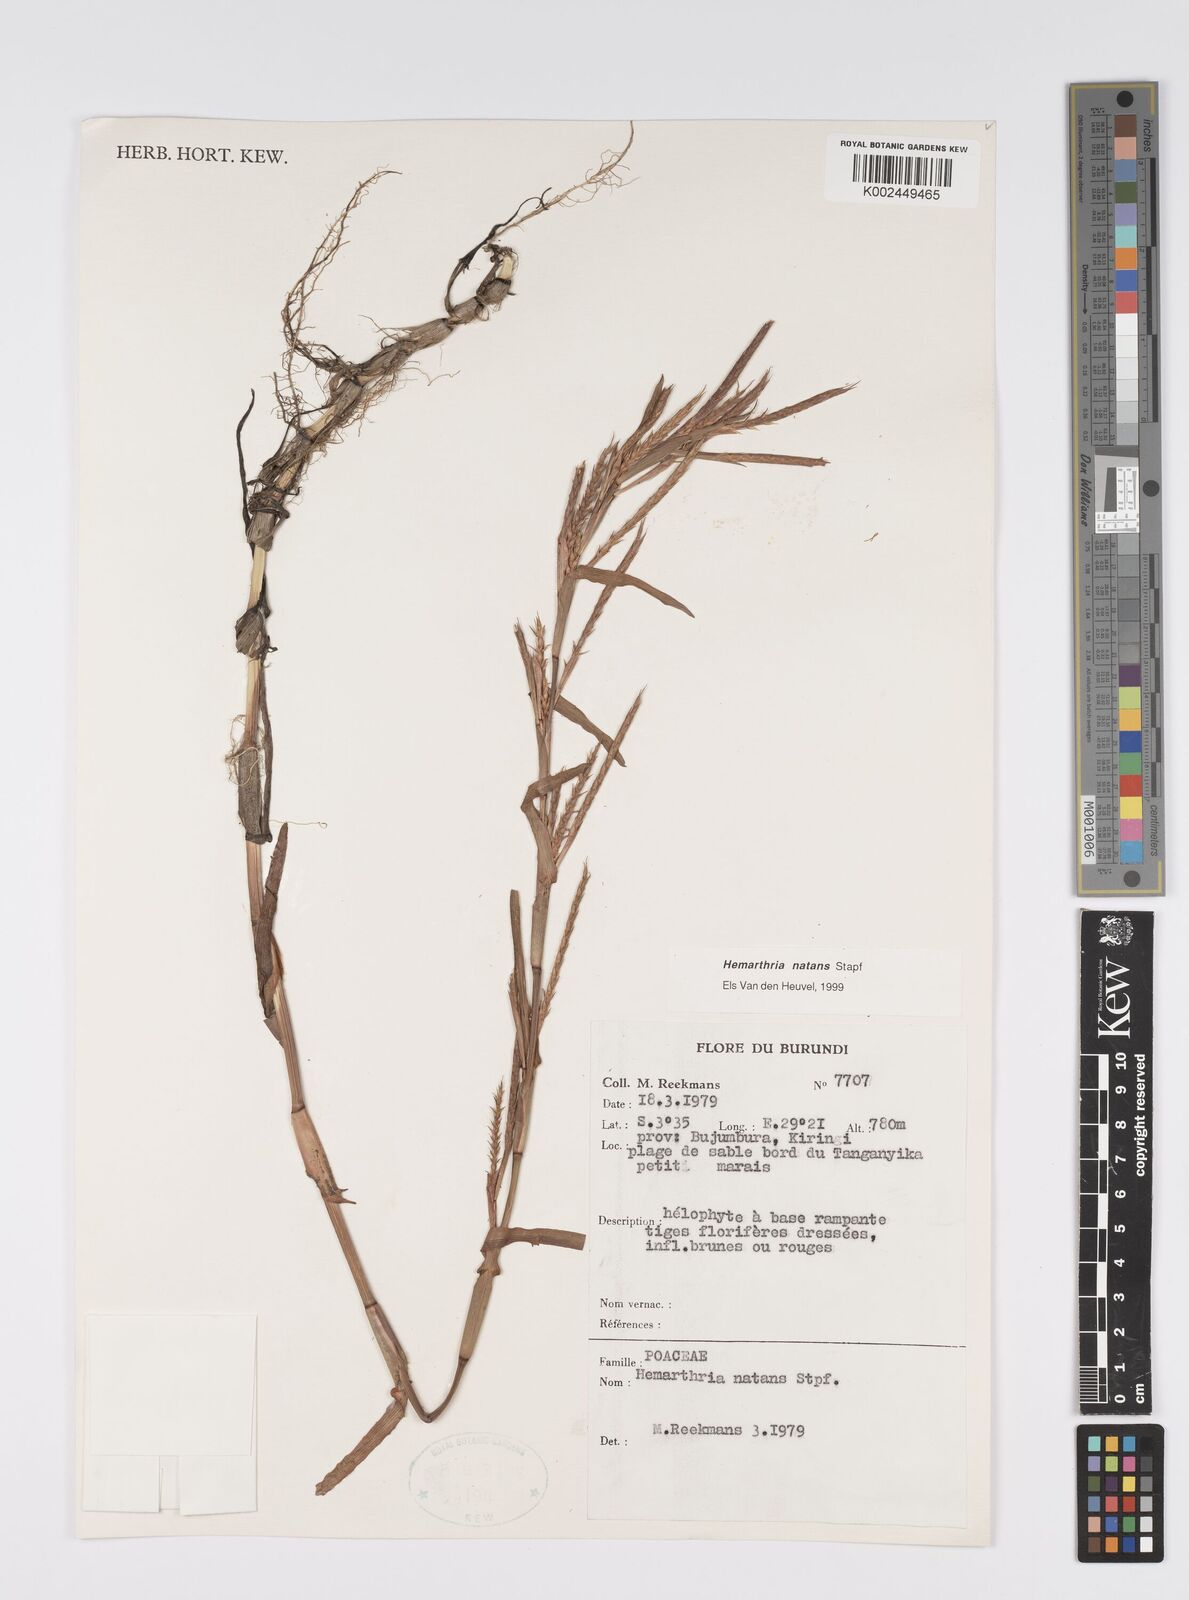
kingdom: Plantae
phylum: Tracheophyta
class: Liliopsida
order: Poales
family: Poaceae
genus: Hemarthria
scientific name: Hemarthria natans
